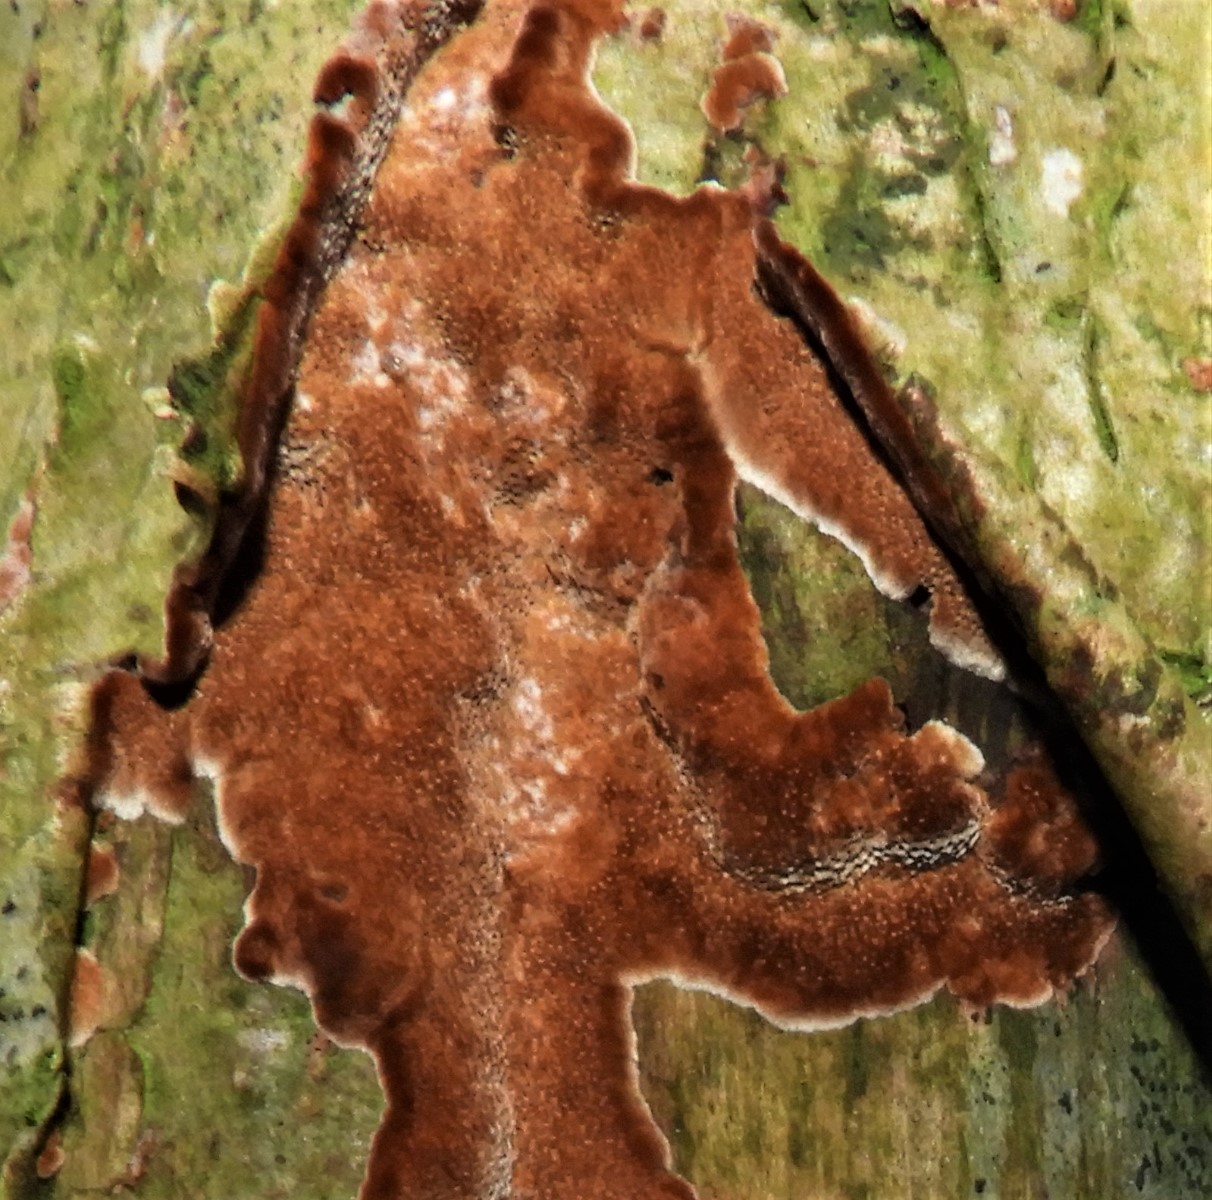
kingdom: Fungi
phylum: Basidiomycota
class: Agaricomycetes
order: Hymenochaetales
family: Hymenochaetaceae
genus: Fuscoporia
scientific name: Fuscoporia
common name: Ildporesvamp
